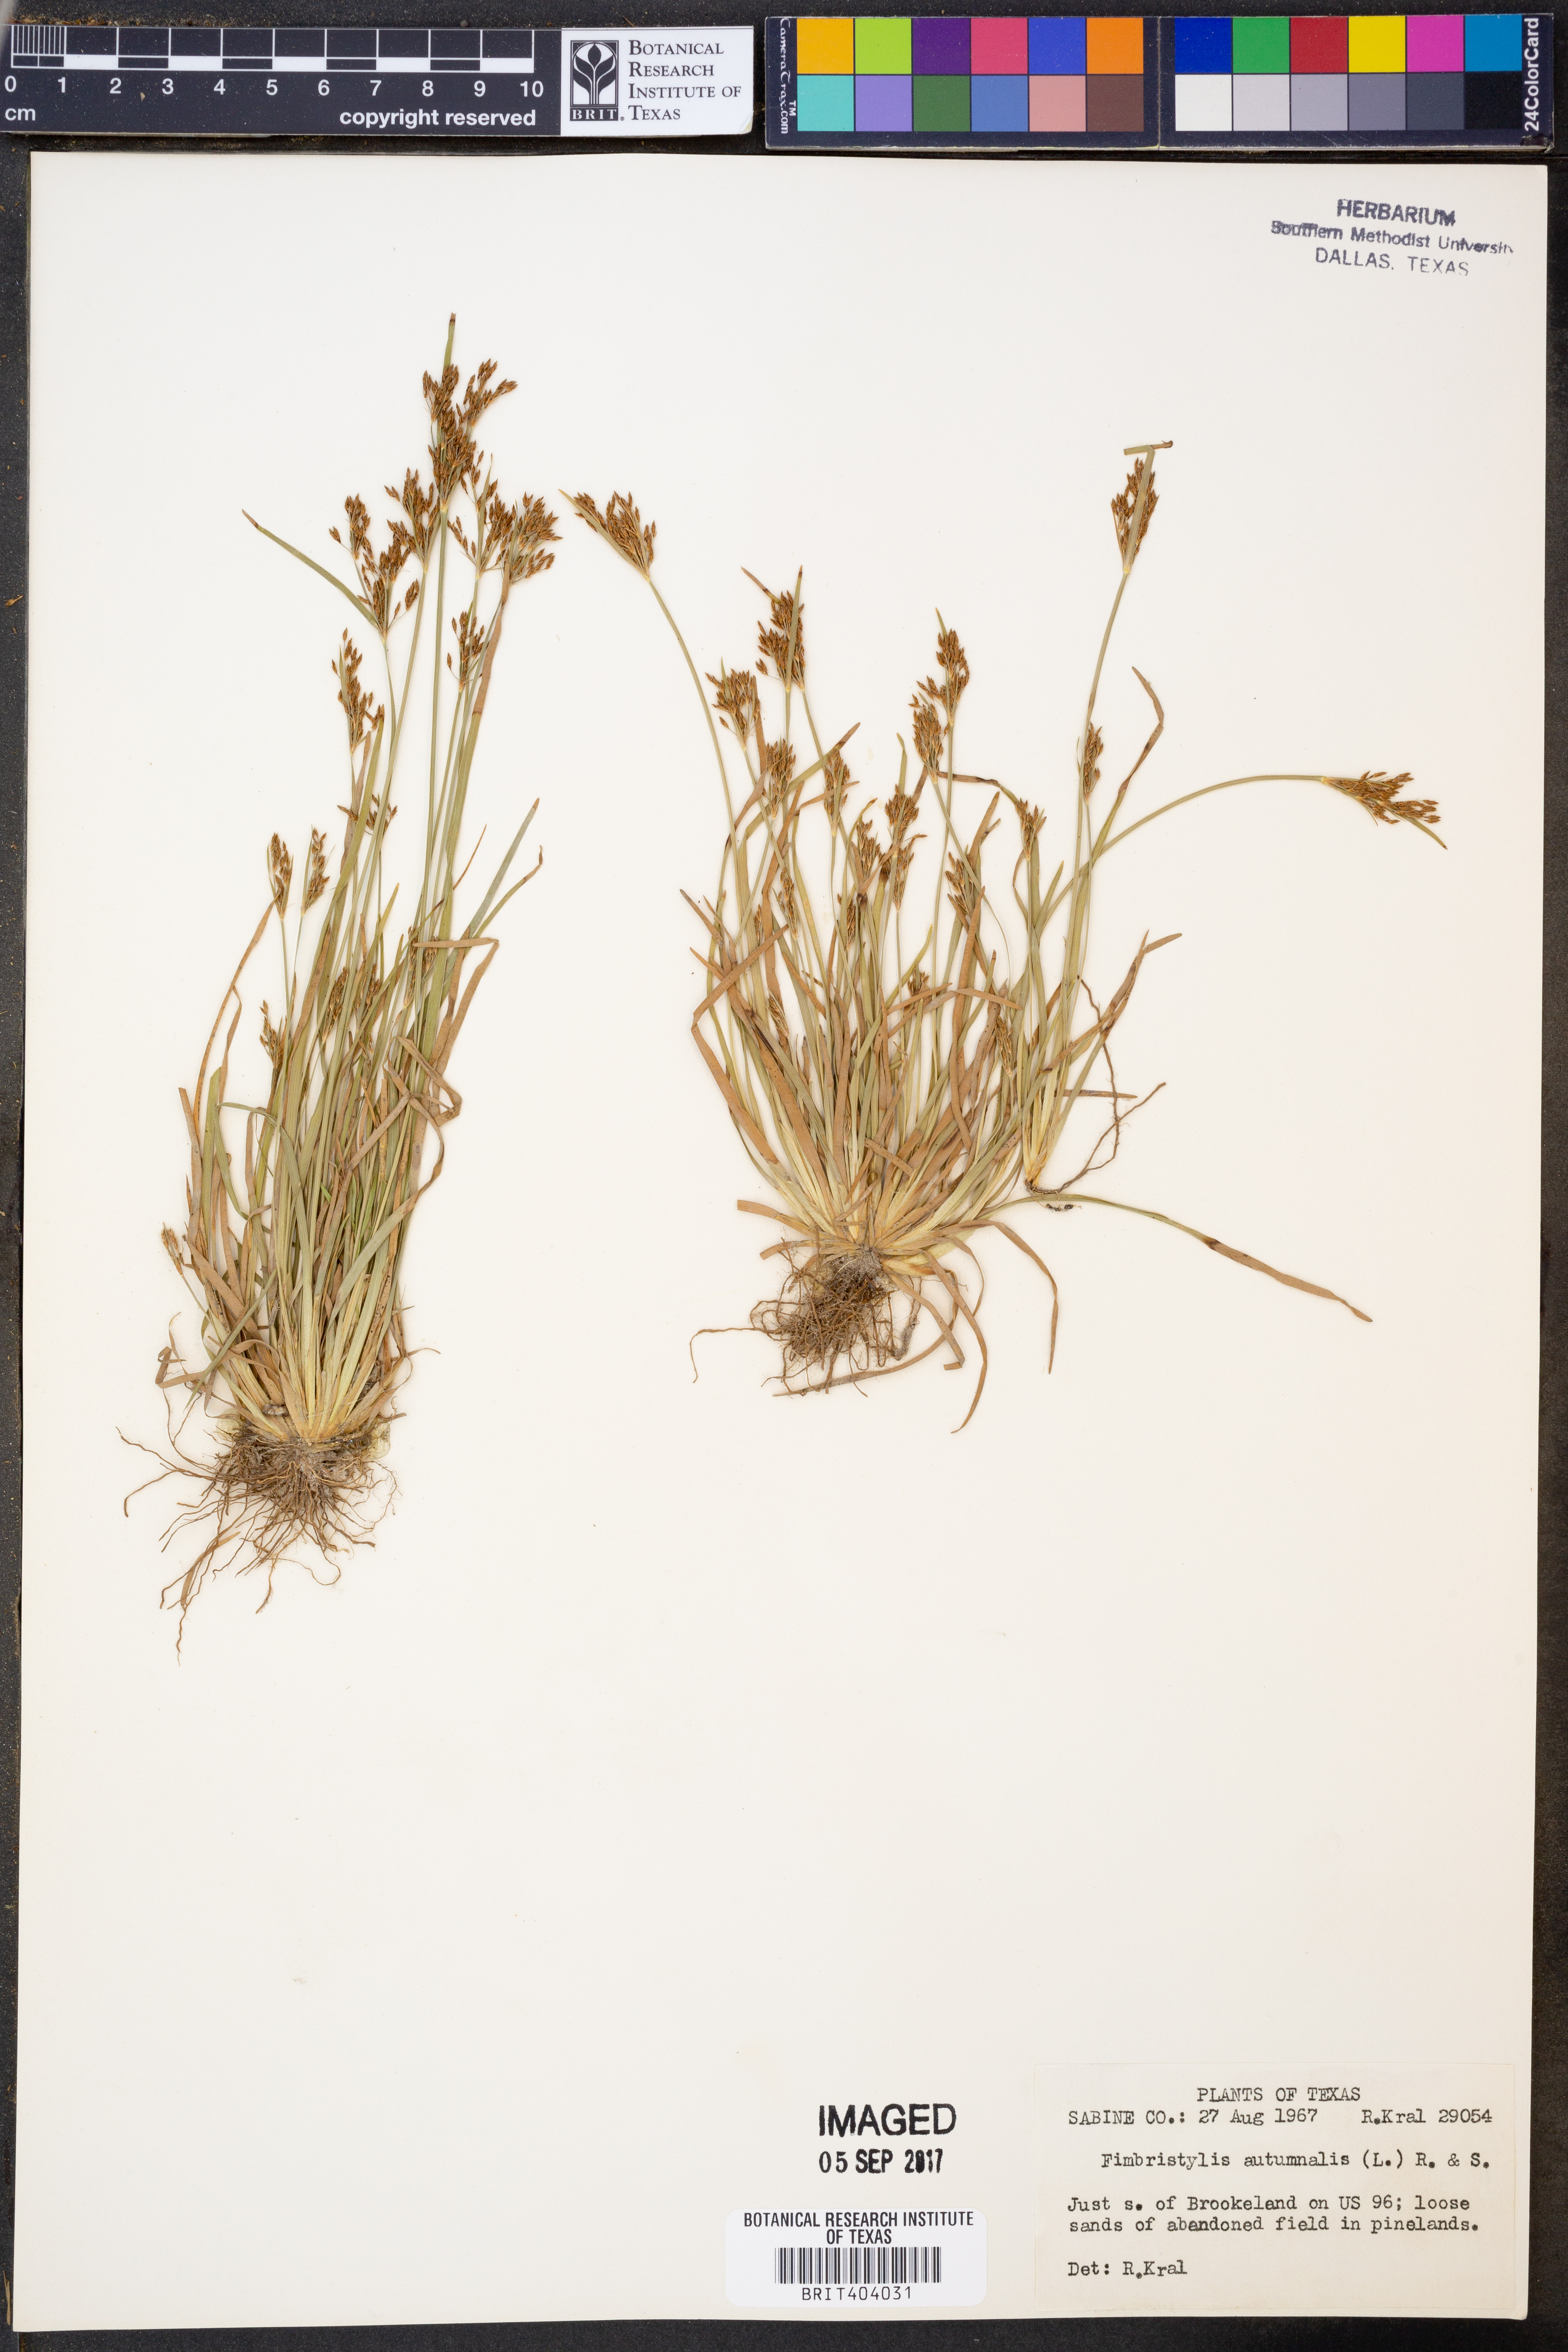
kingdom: Plantae
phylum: Tracheophyta
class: Liliopsida
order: Poales
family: Cyperaceae
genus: Fimbristylis
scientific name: Fimbristylis autumnalis
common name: Slender fimbristylis
